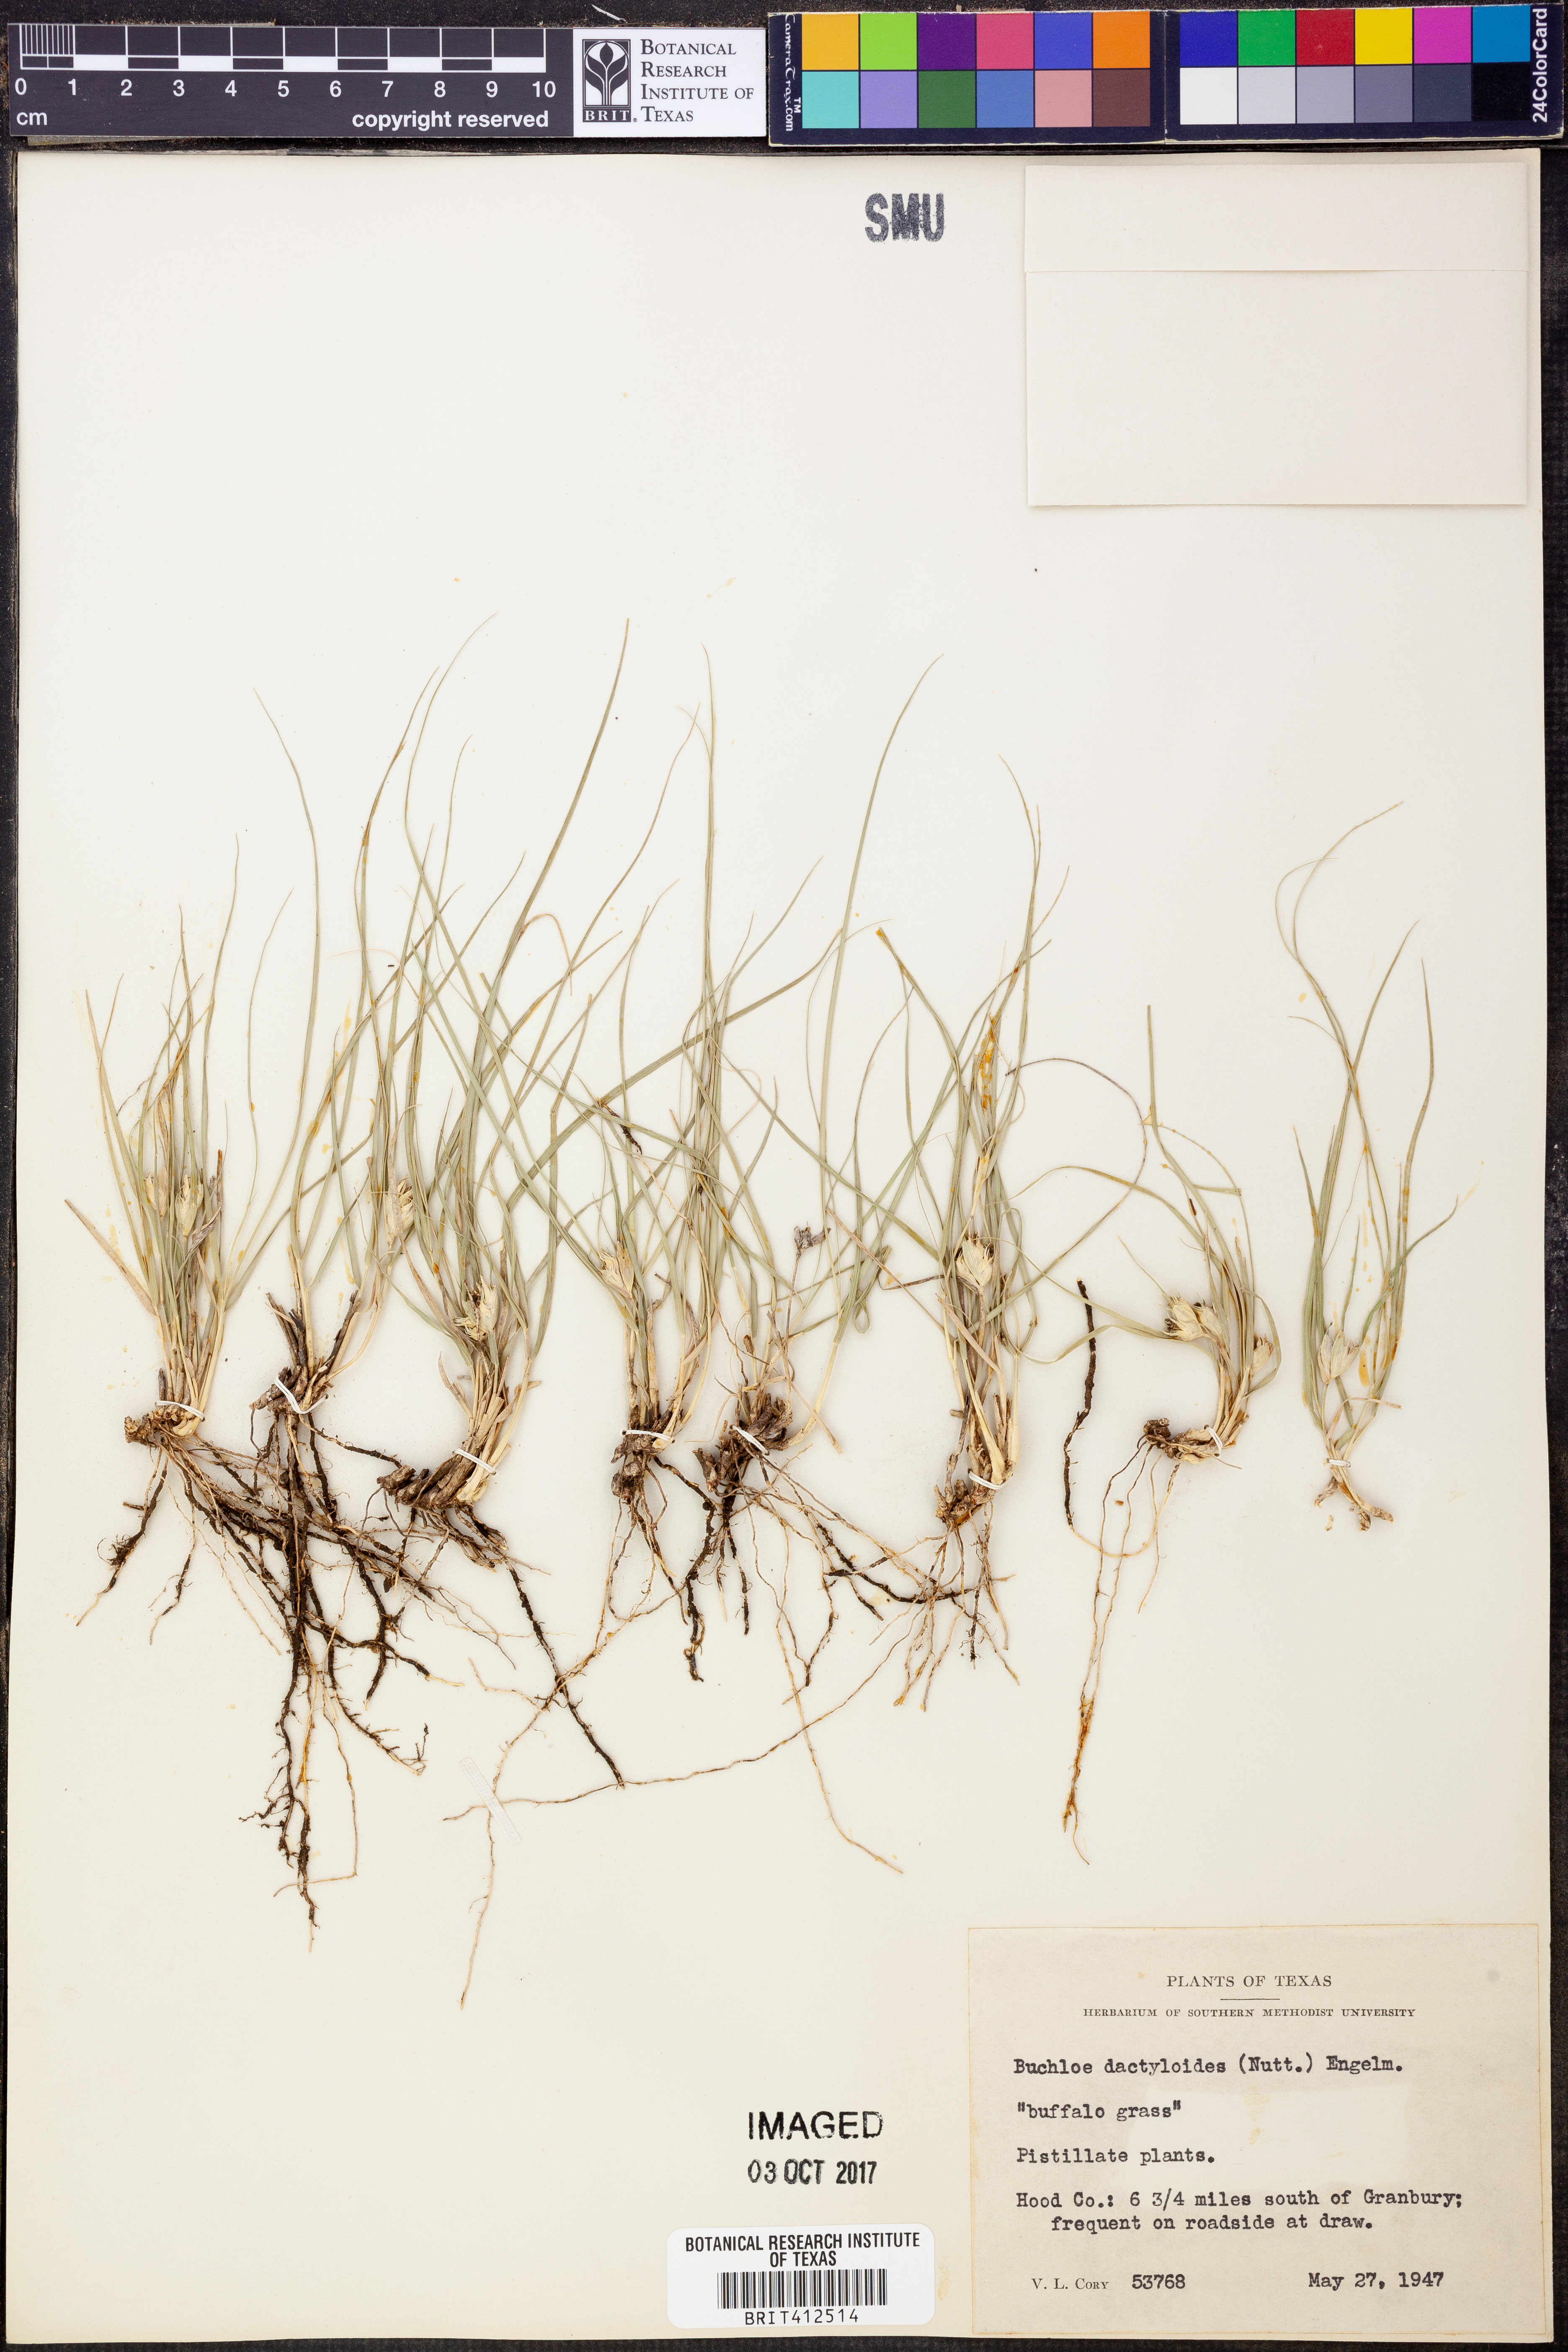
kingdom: Plantae
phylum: Tracheophyta
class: Liliopsida
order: Poales
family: Poaceae
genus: Bouteloua
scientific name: Bouteloua dactyloides
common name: Buffalo grass
